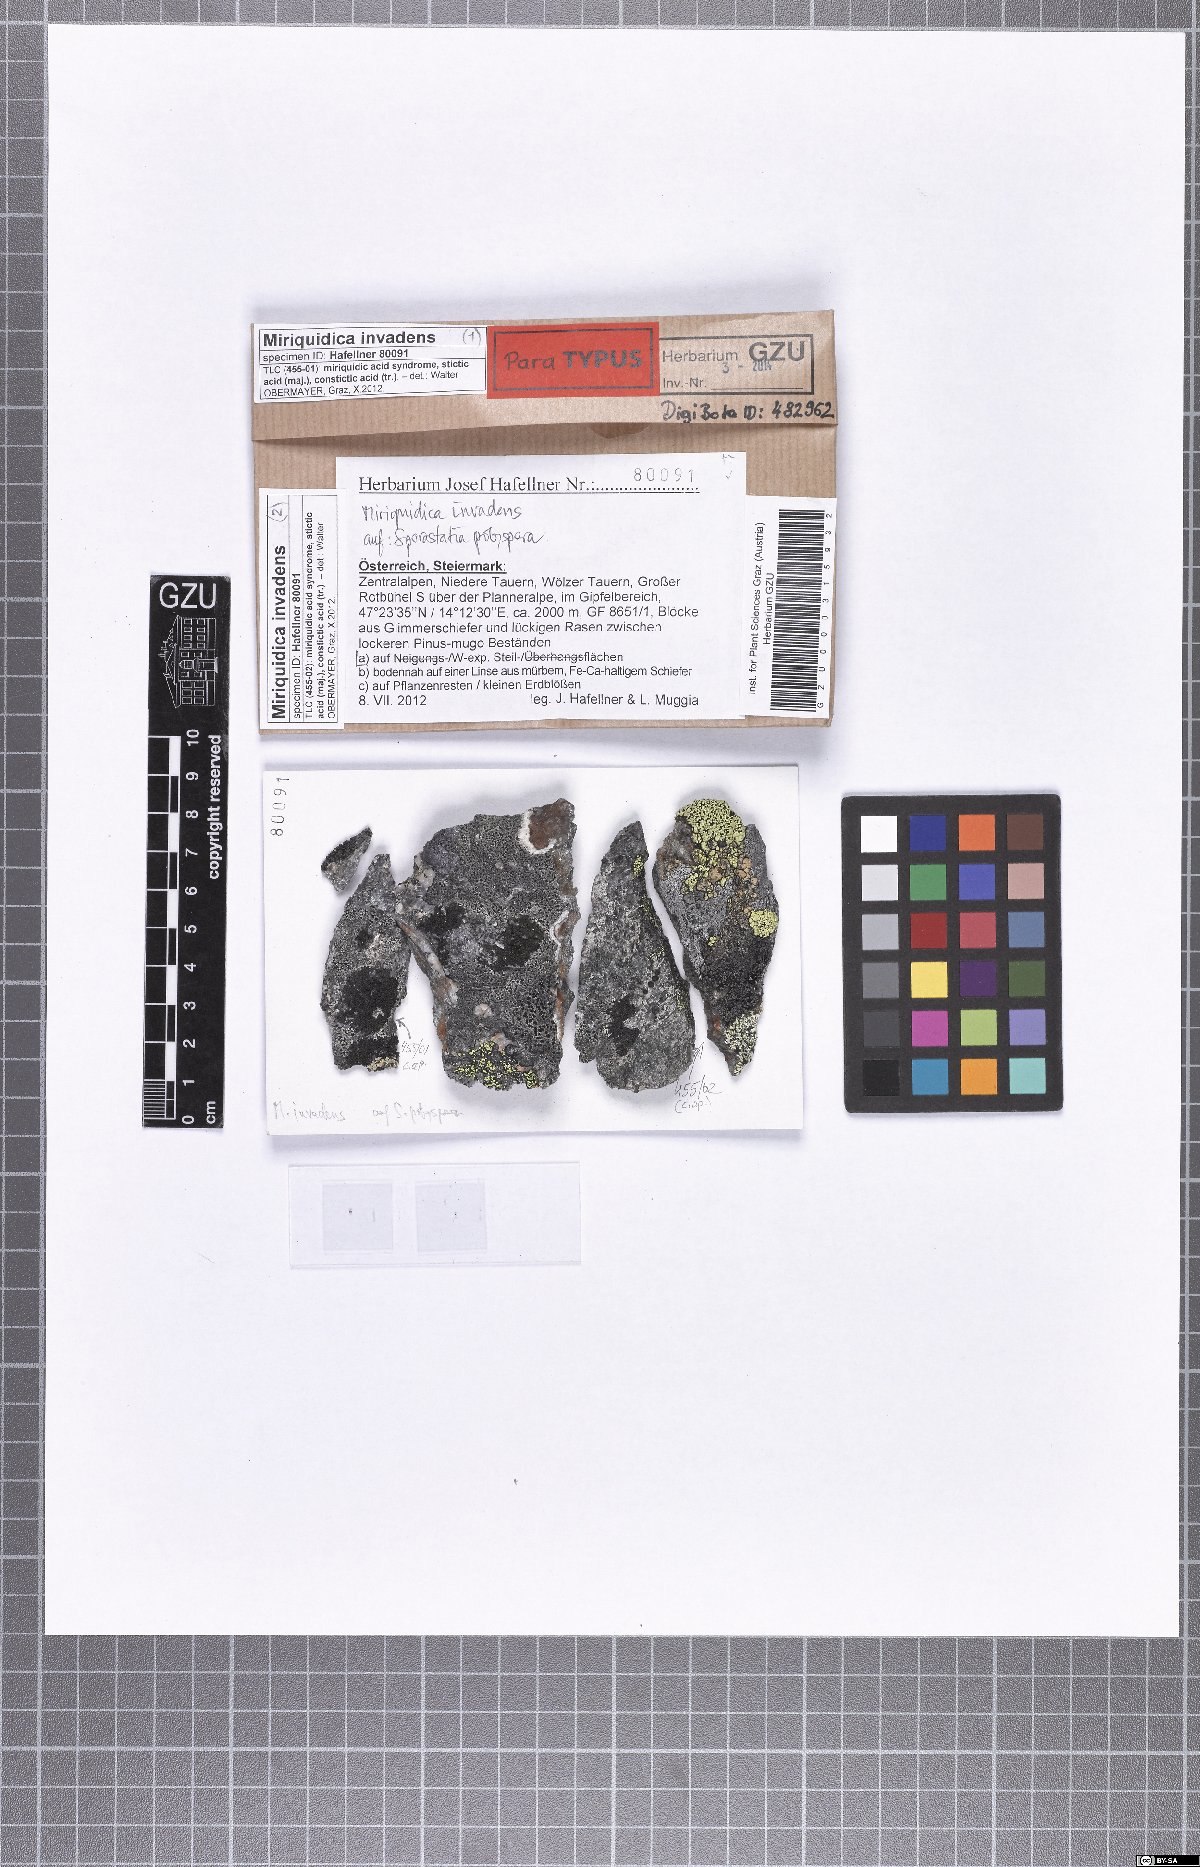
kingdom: Fungi
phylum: Ascomycota
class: Lecanoromycetes
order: Lecanorales
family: Lecanoraceae
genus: Miriquidica
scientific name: Miriquidica invadens
